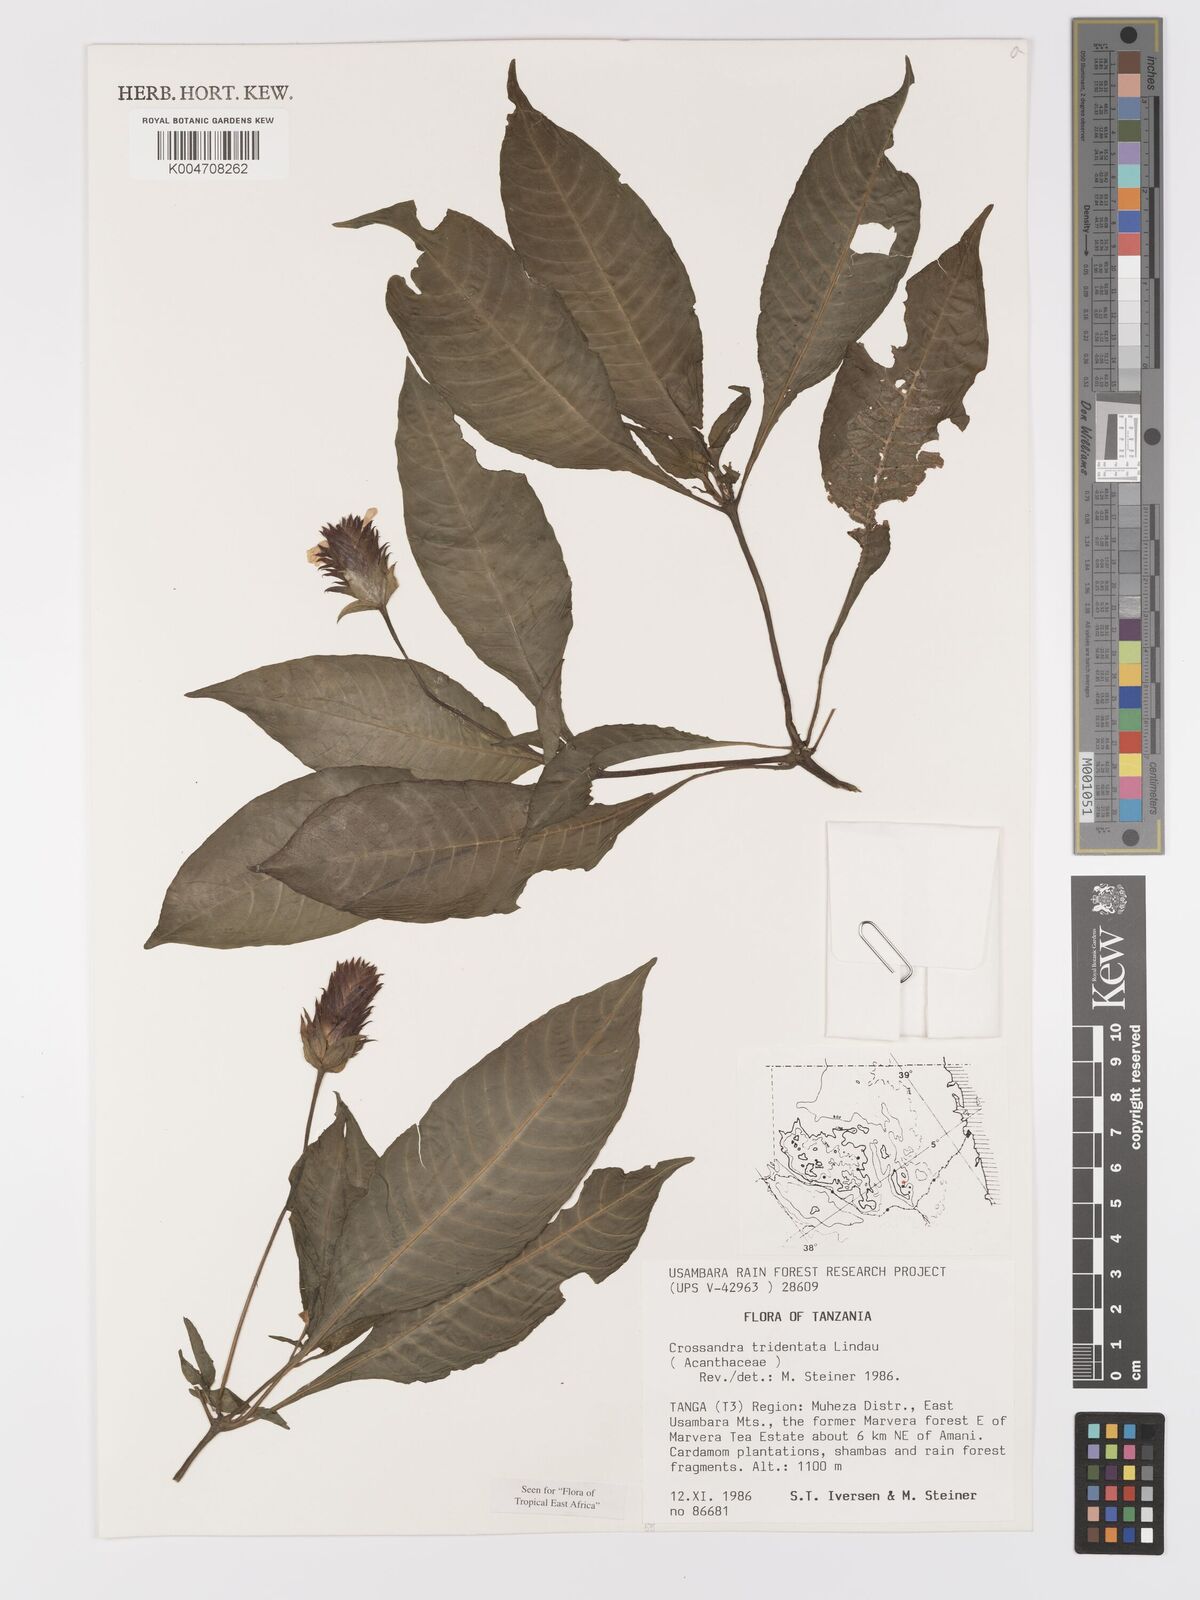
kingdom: Plantae
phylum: Tracheophyta
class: Magnoliopsida
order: Lamiales
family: Acanthaceae
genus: Crossandra
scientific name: Crossandra tridentata
